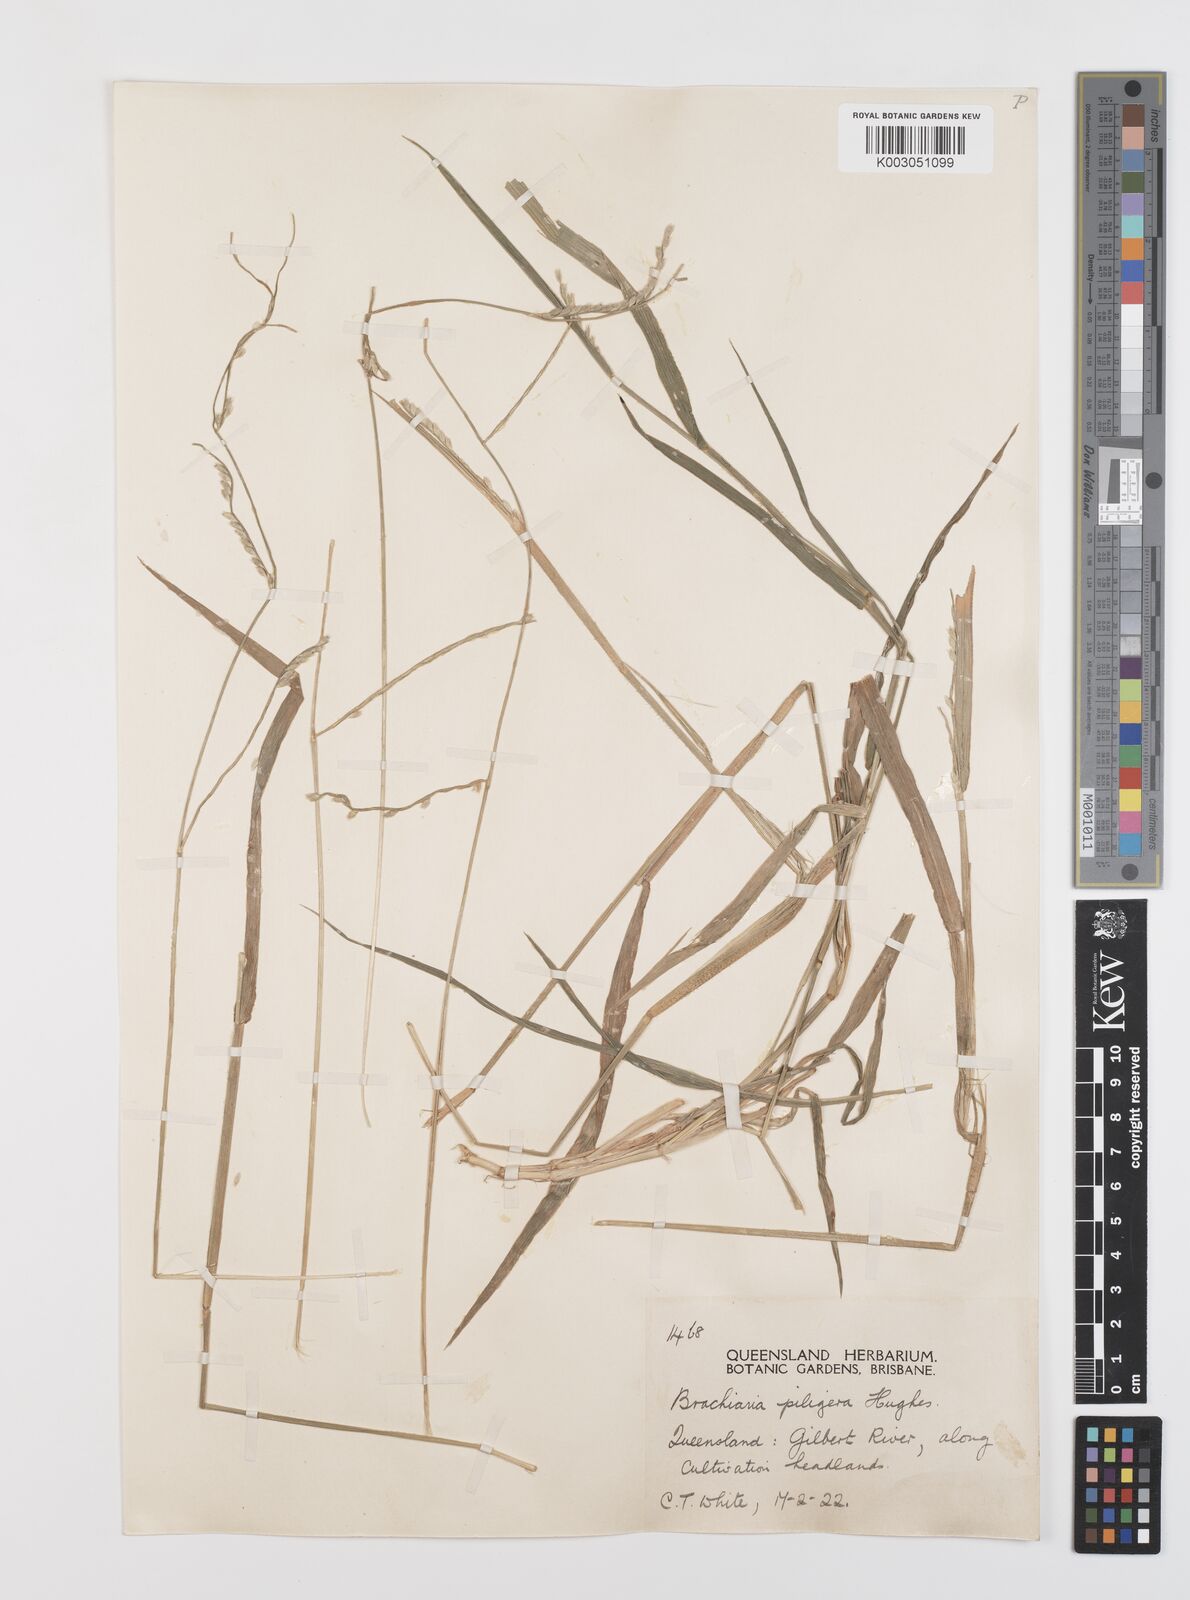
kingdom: Plantae
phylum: Tracheophyta
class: Liliopsida
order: Poales
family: Poaceae
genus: Urochloa
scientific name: Urochloa piligera
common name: Wattle signalgrass
